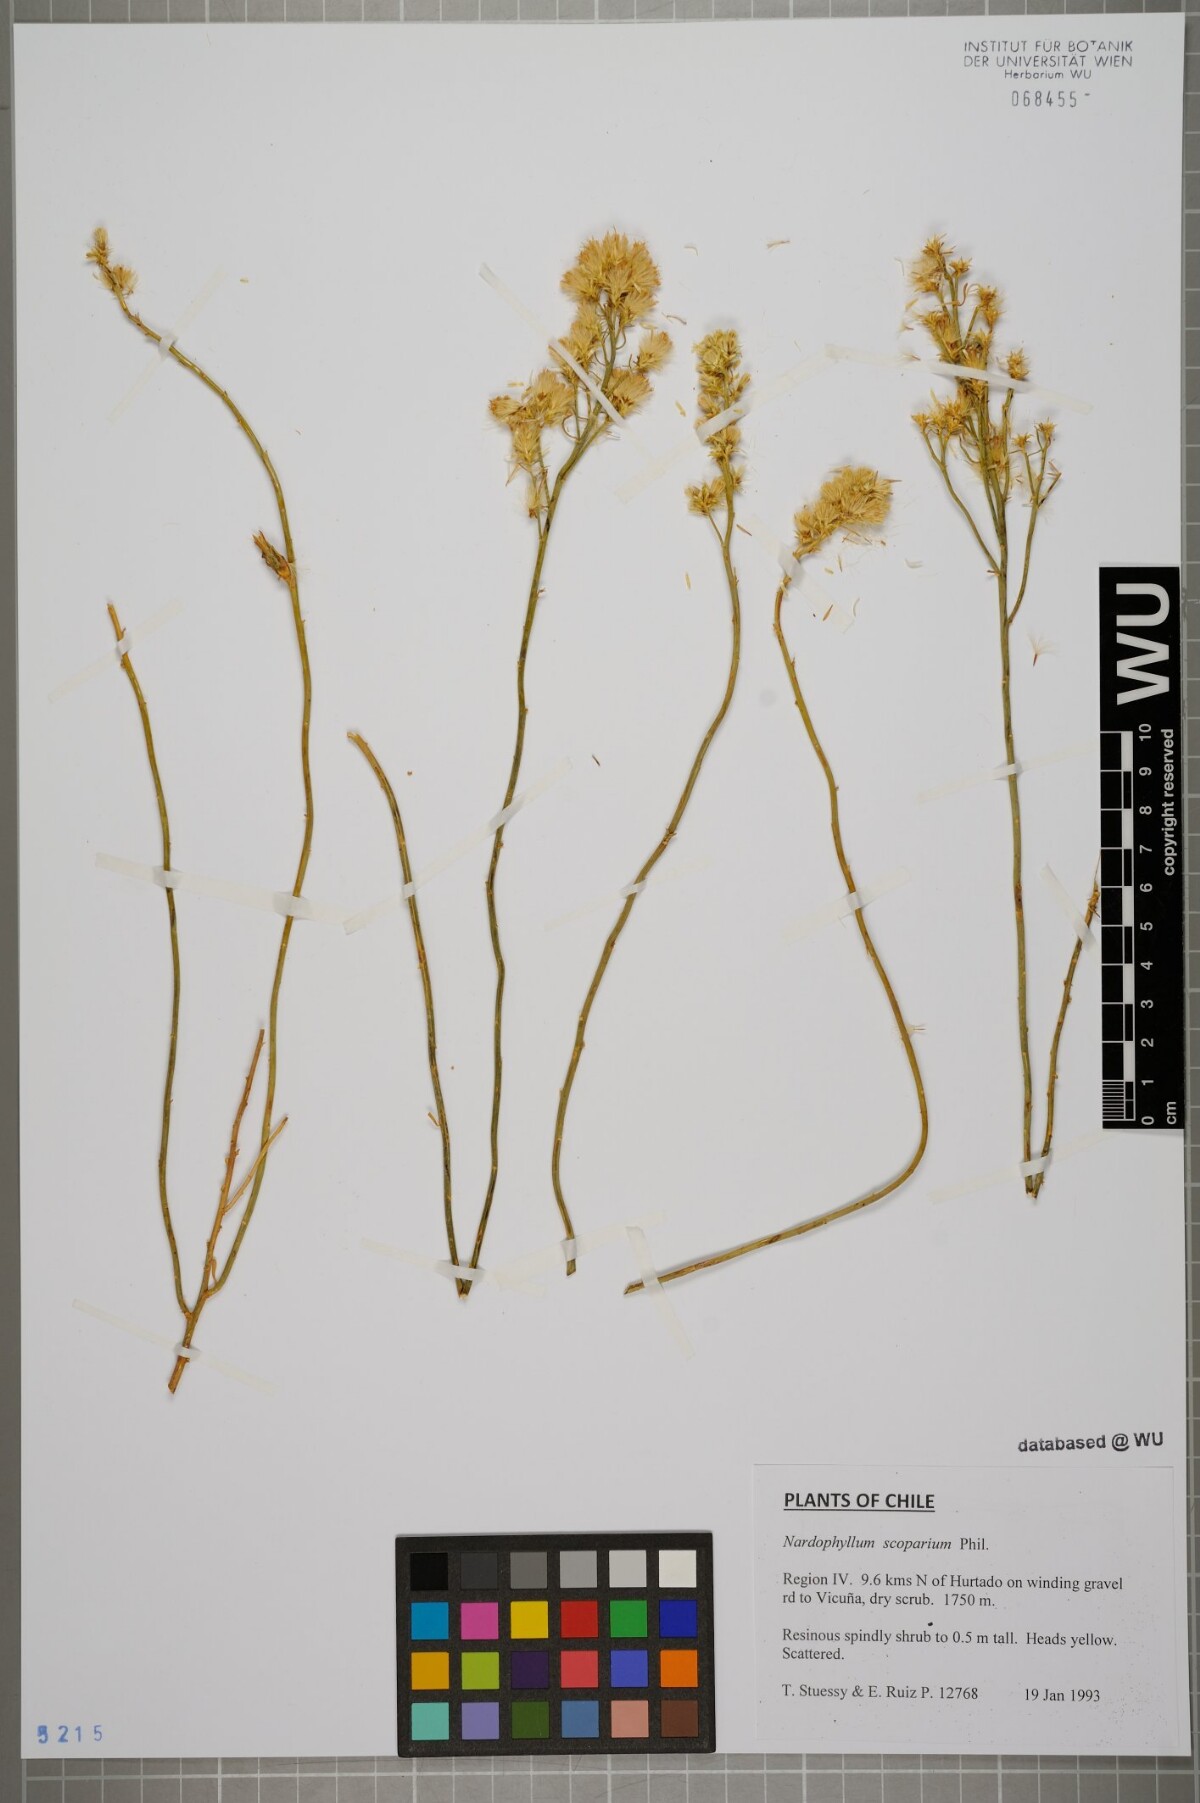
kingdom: Plantae
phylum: Tracheophyta
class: Magnoliopsida
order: Asterales
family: Asteraceae
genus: Guynesomia
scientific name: Guynesomia scoparia
